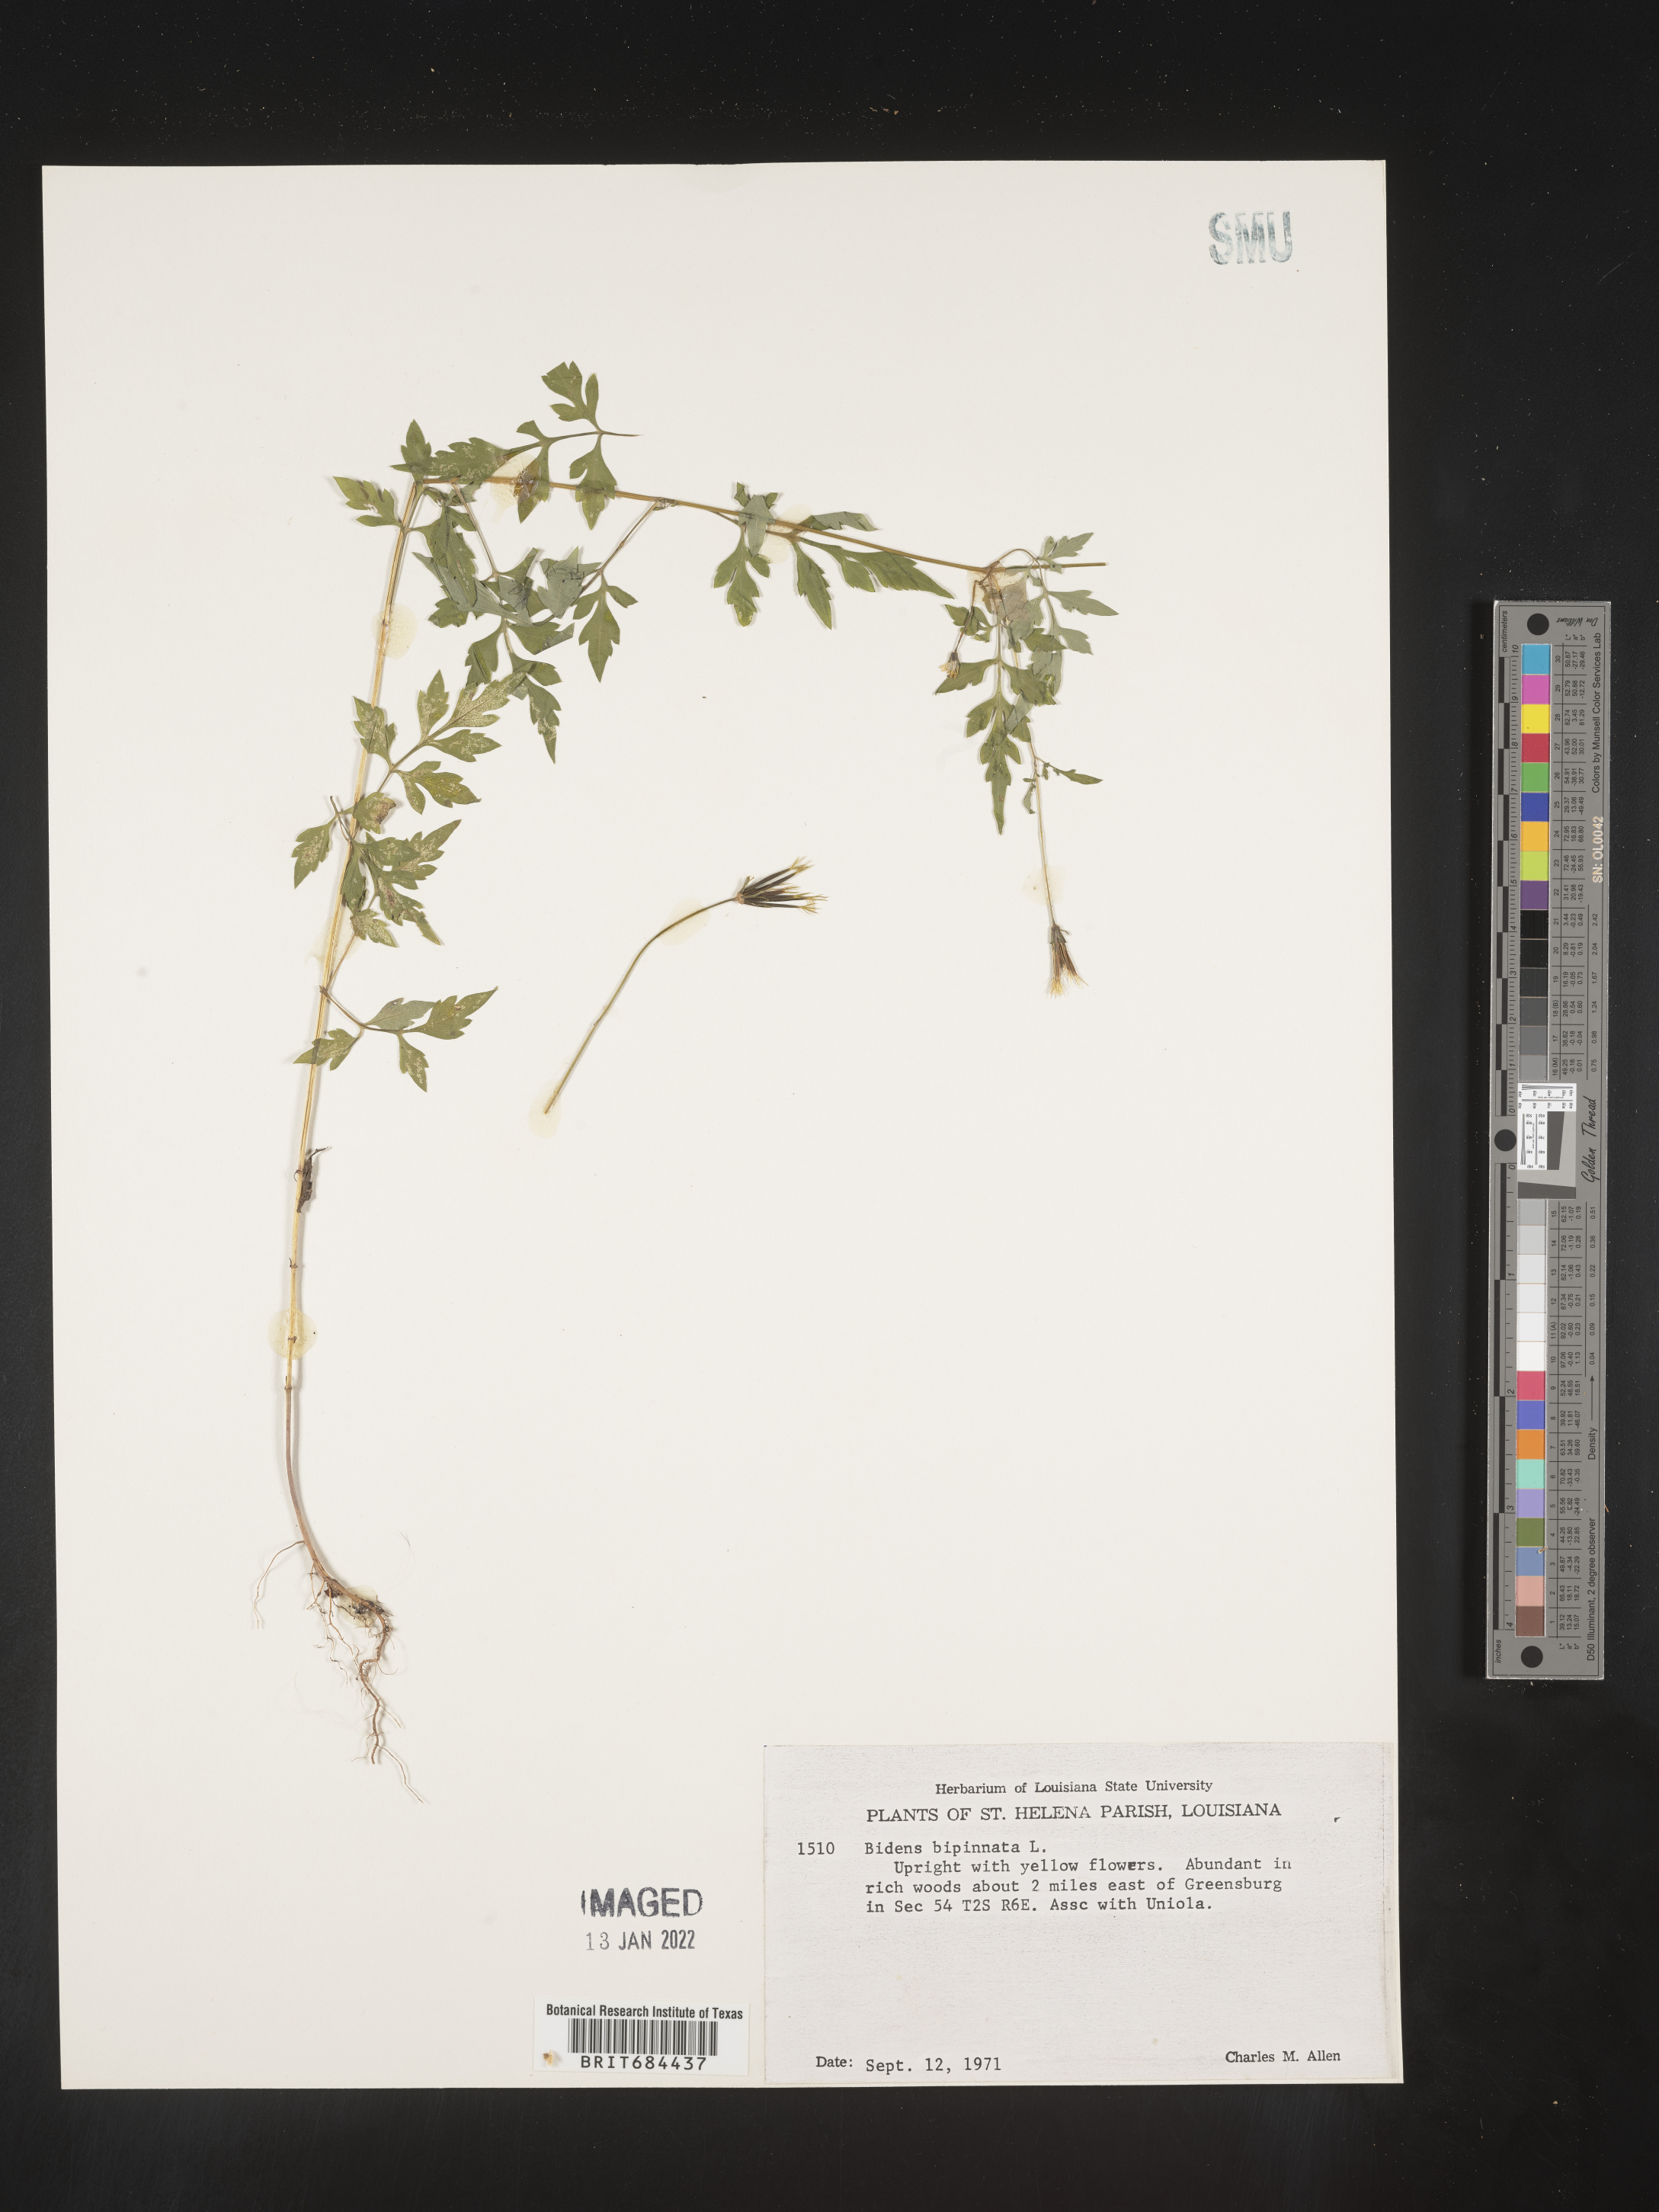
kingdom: Plantae
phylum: Tracheophyta
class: Magnoliopsida
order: Asterales
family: Asteraceae
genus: Bidens
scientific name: Bidens bipinnata
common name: Spanish-needles
